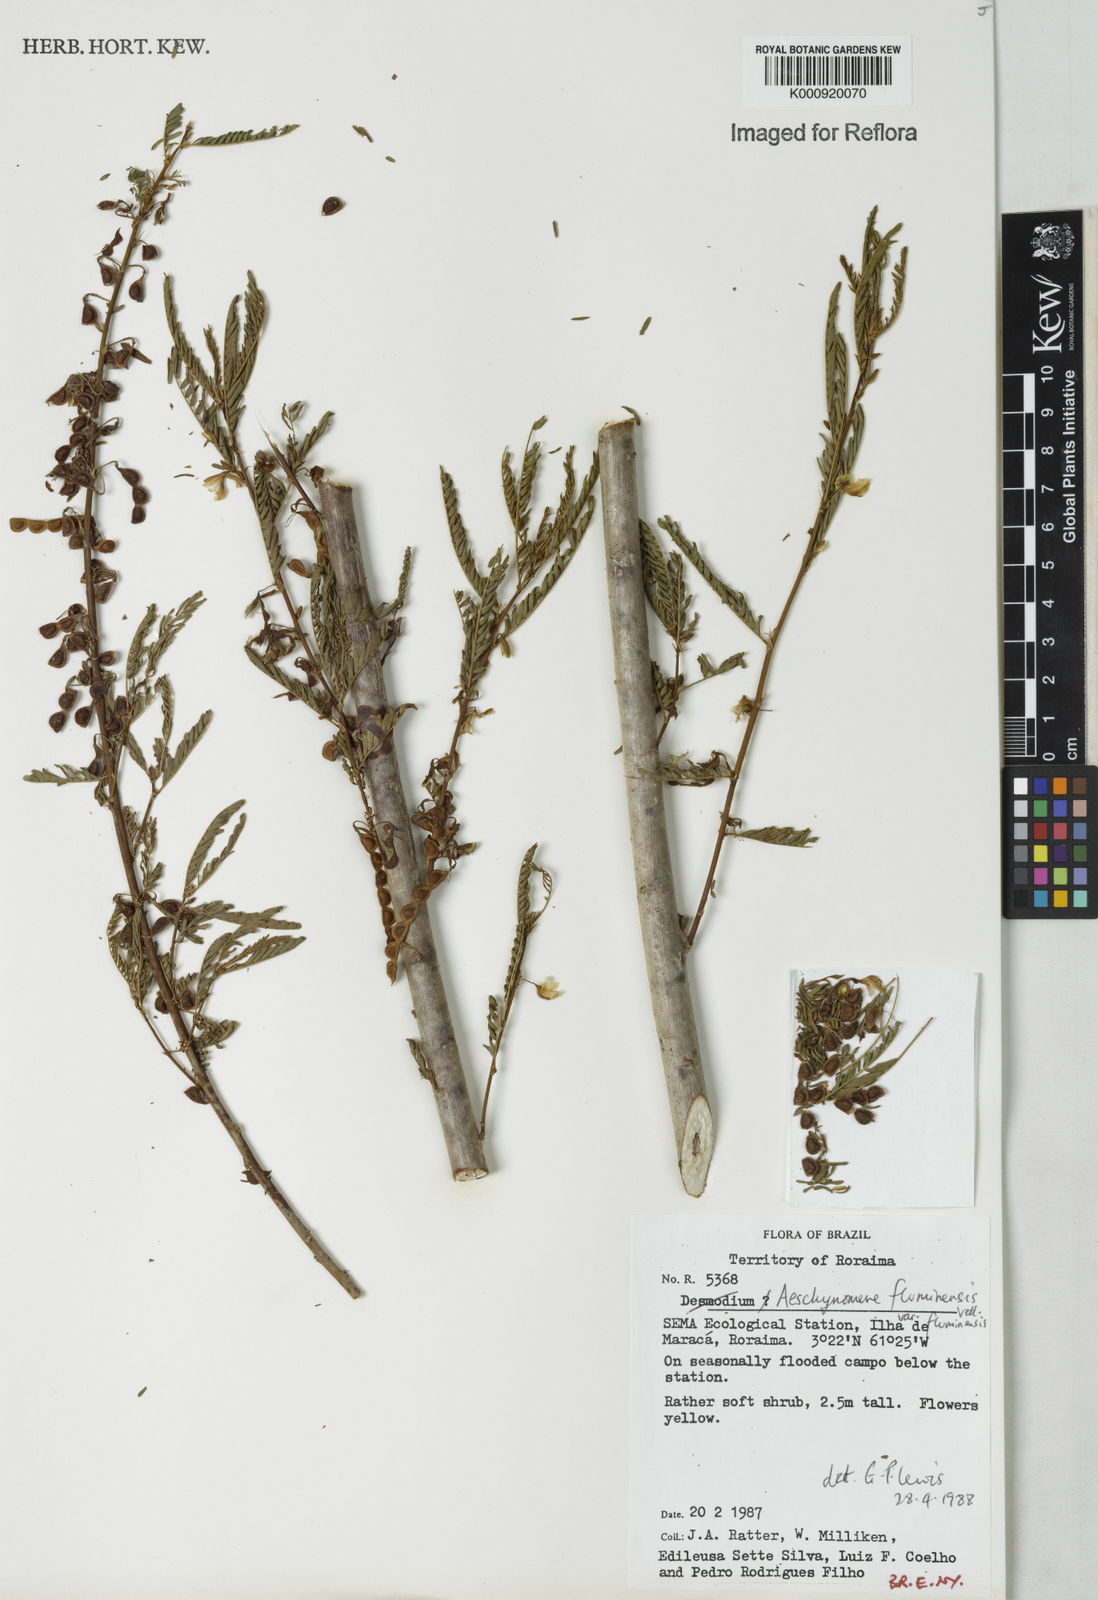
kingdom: Plantae
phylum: Tracheophyta
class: Magnoliopsida
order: Fabales
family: Fabaceae
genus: Aeschynomene
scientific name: Aeschynomene fluminensis
